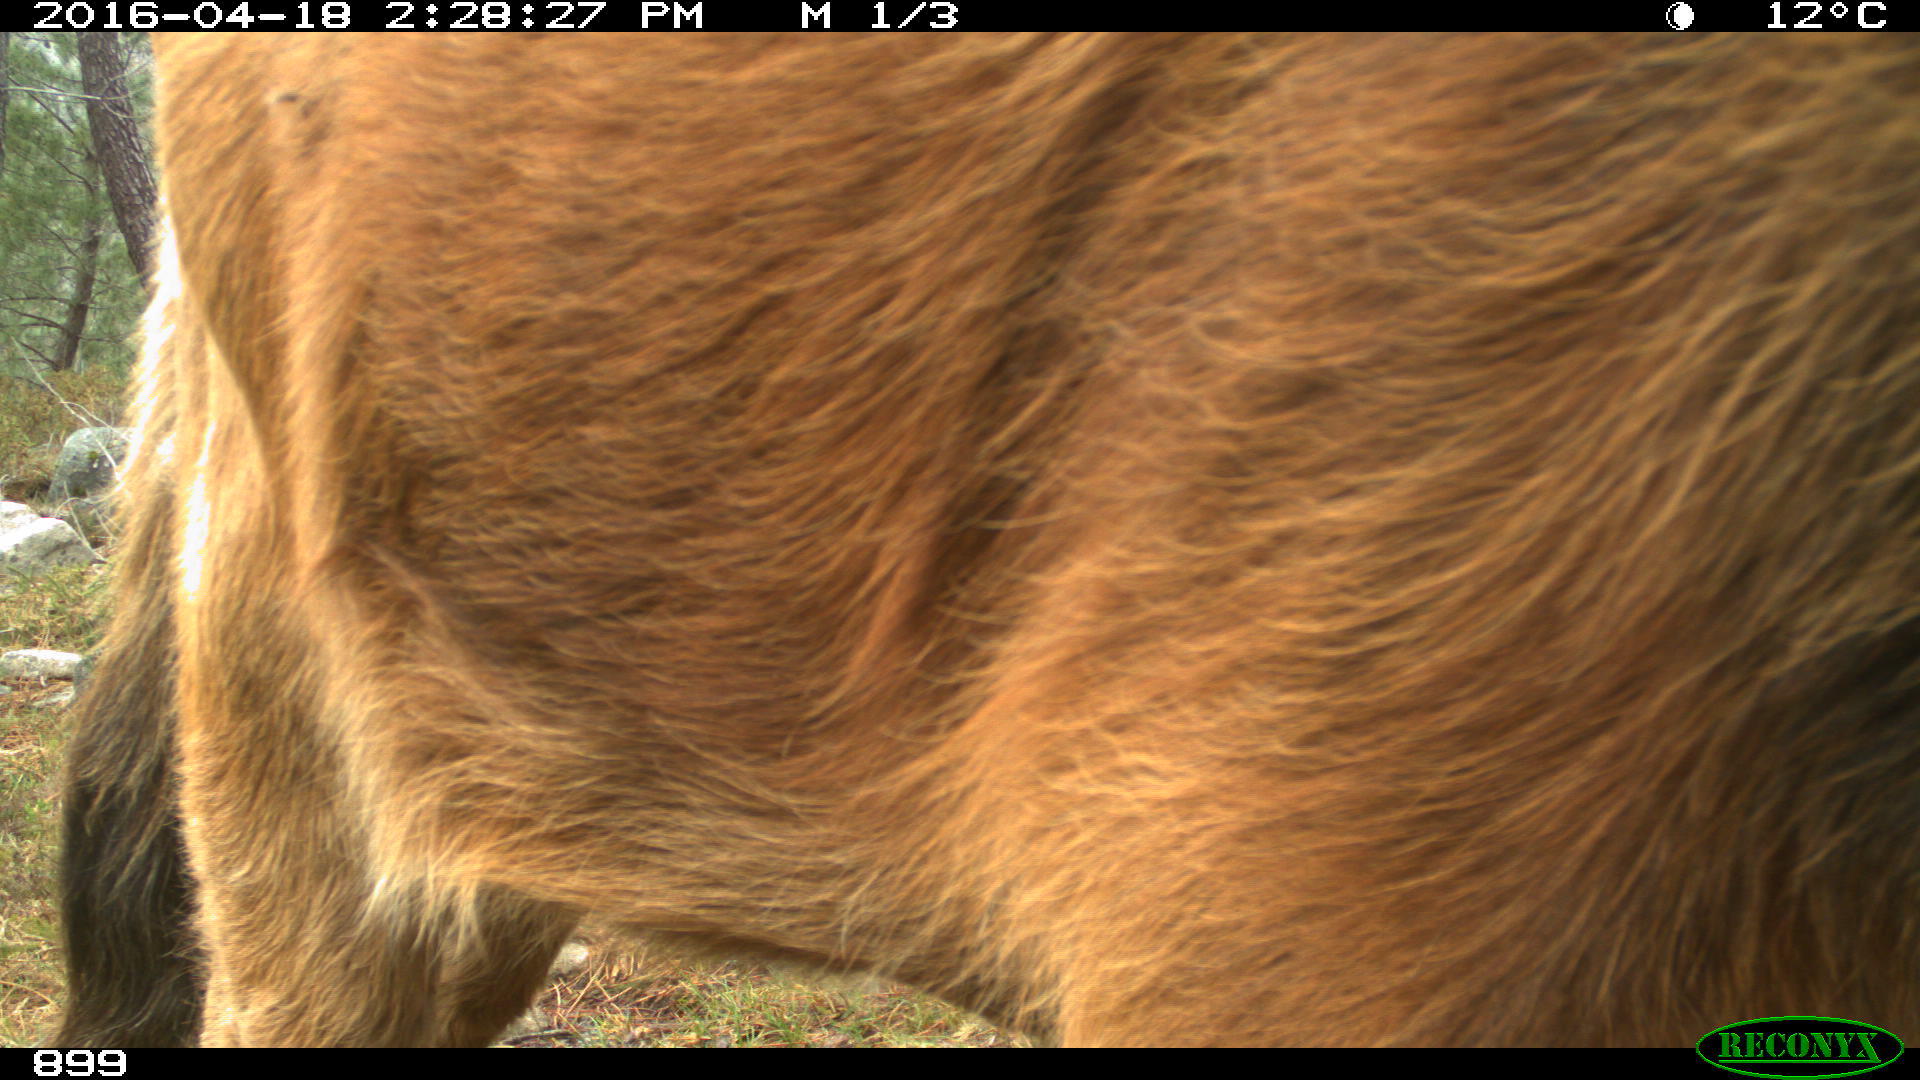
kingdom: Animalia
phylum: Chordata
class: Mammalia
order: Artiodactyla
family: Bovidae
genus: Bos
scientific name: Bos taurus
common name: Domesticated cattle
